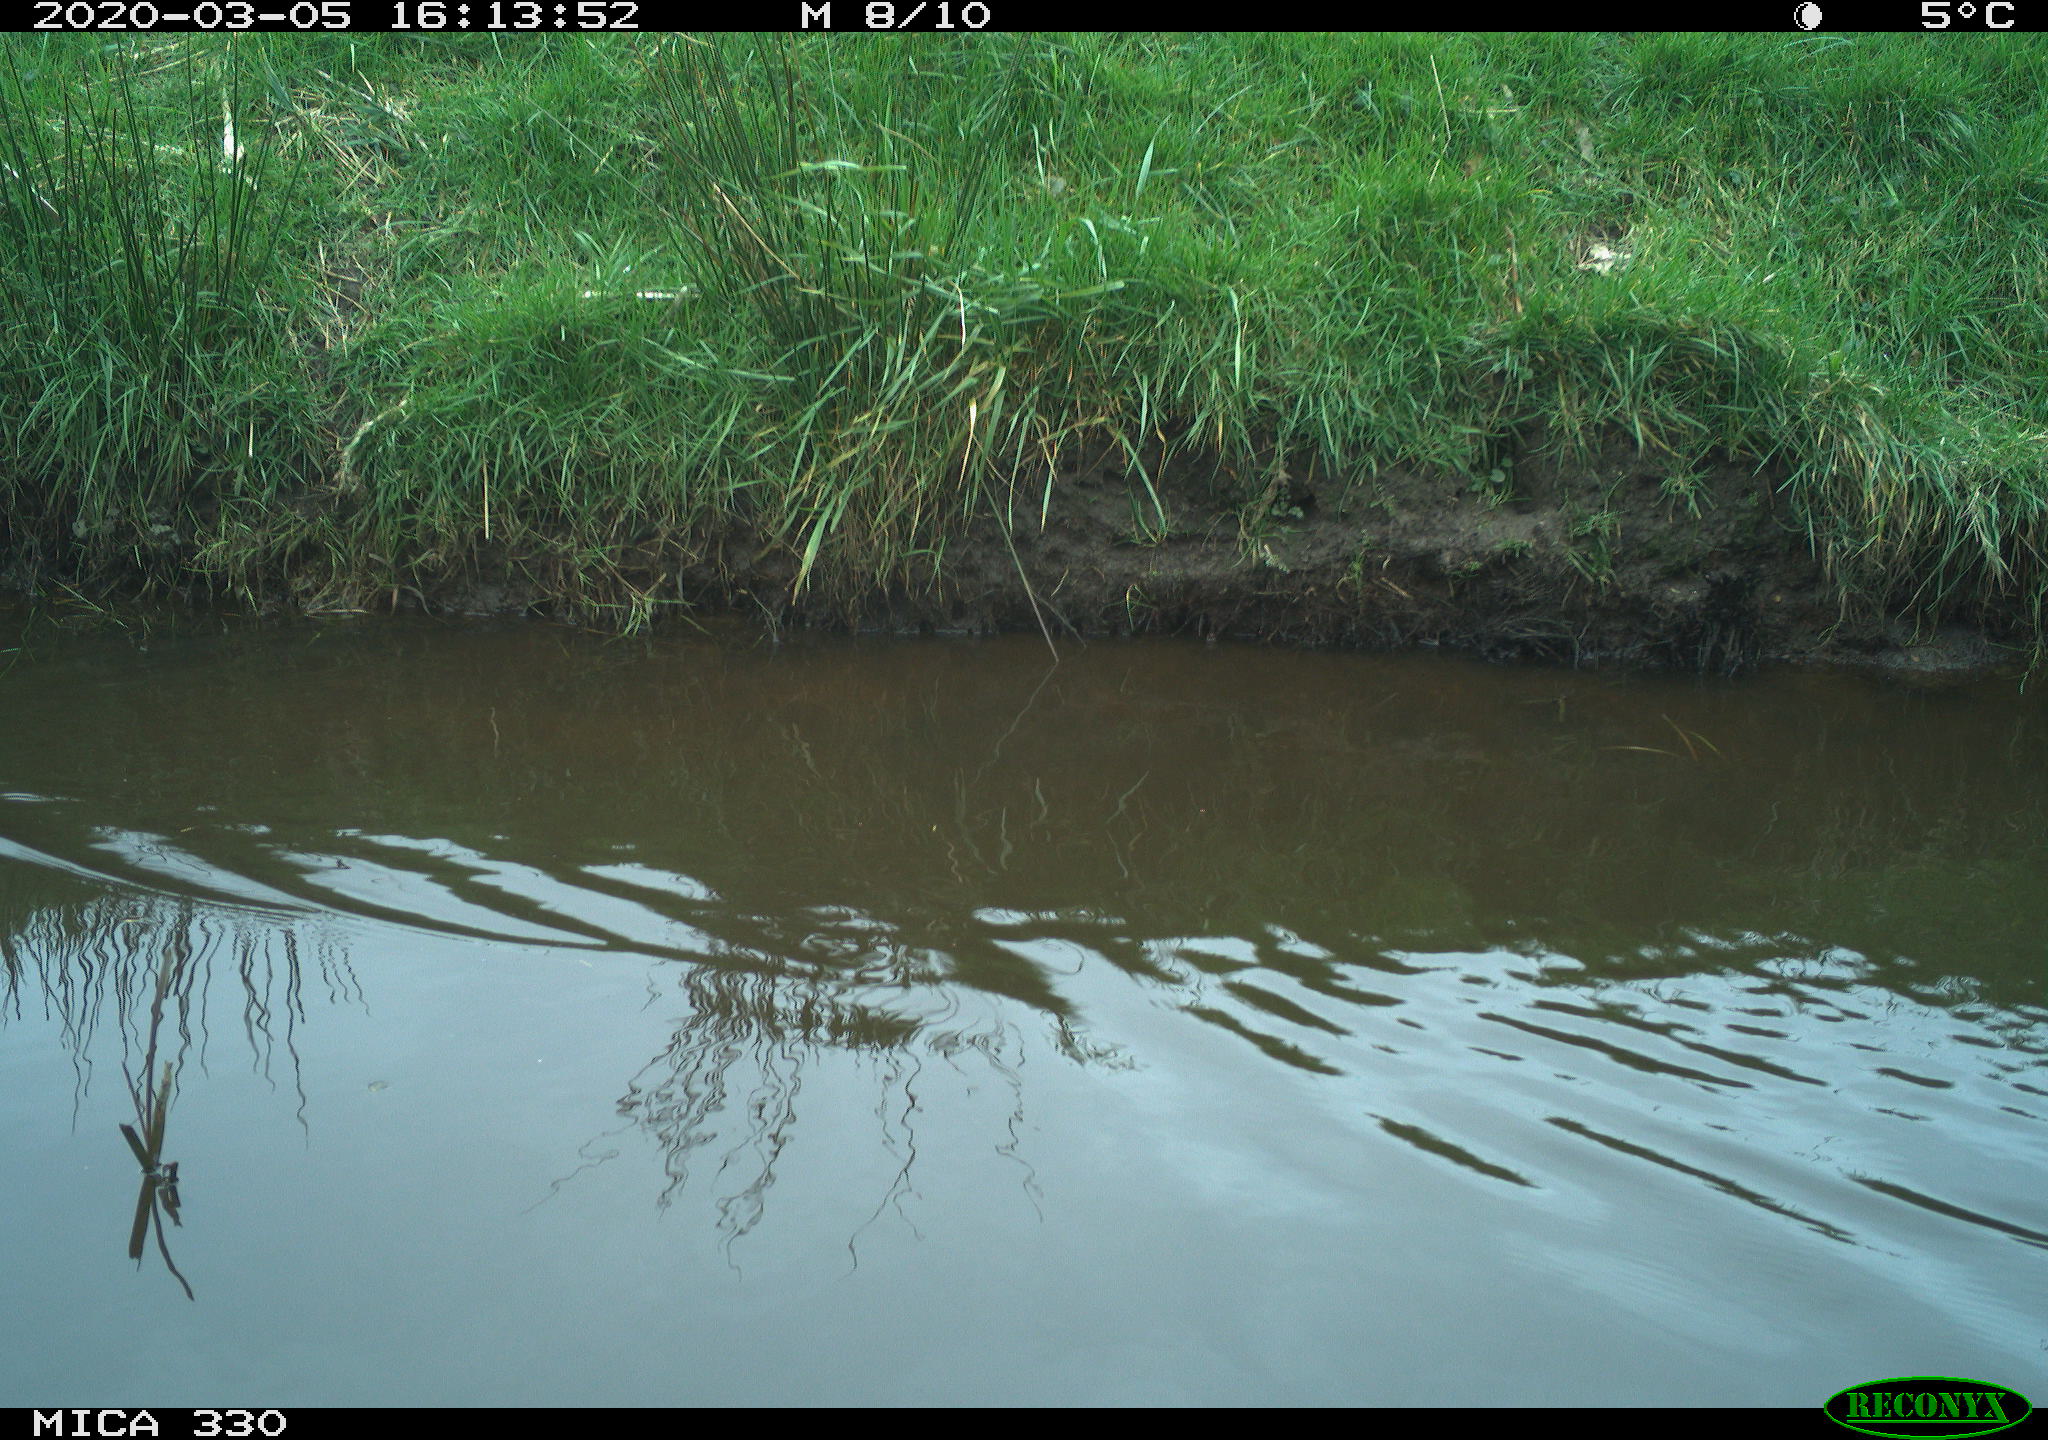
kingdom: Animalia
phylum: Chordata
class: Aves
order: Anseriformes
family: Anatidae
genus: Anas
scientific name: Anas platyrhynchos
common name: Mallard
